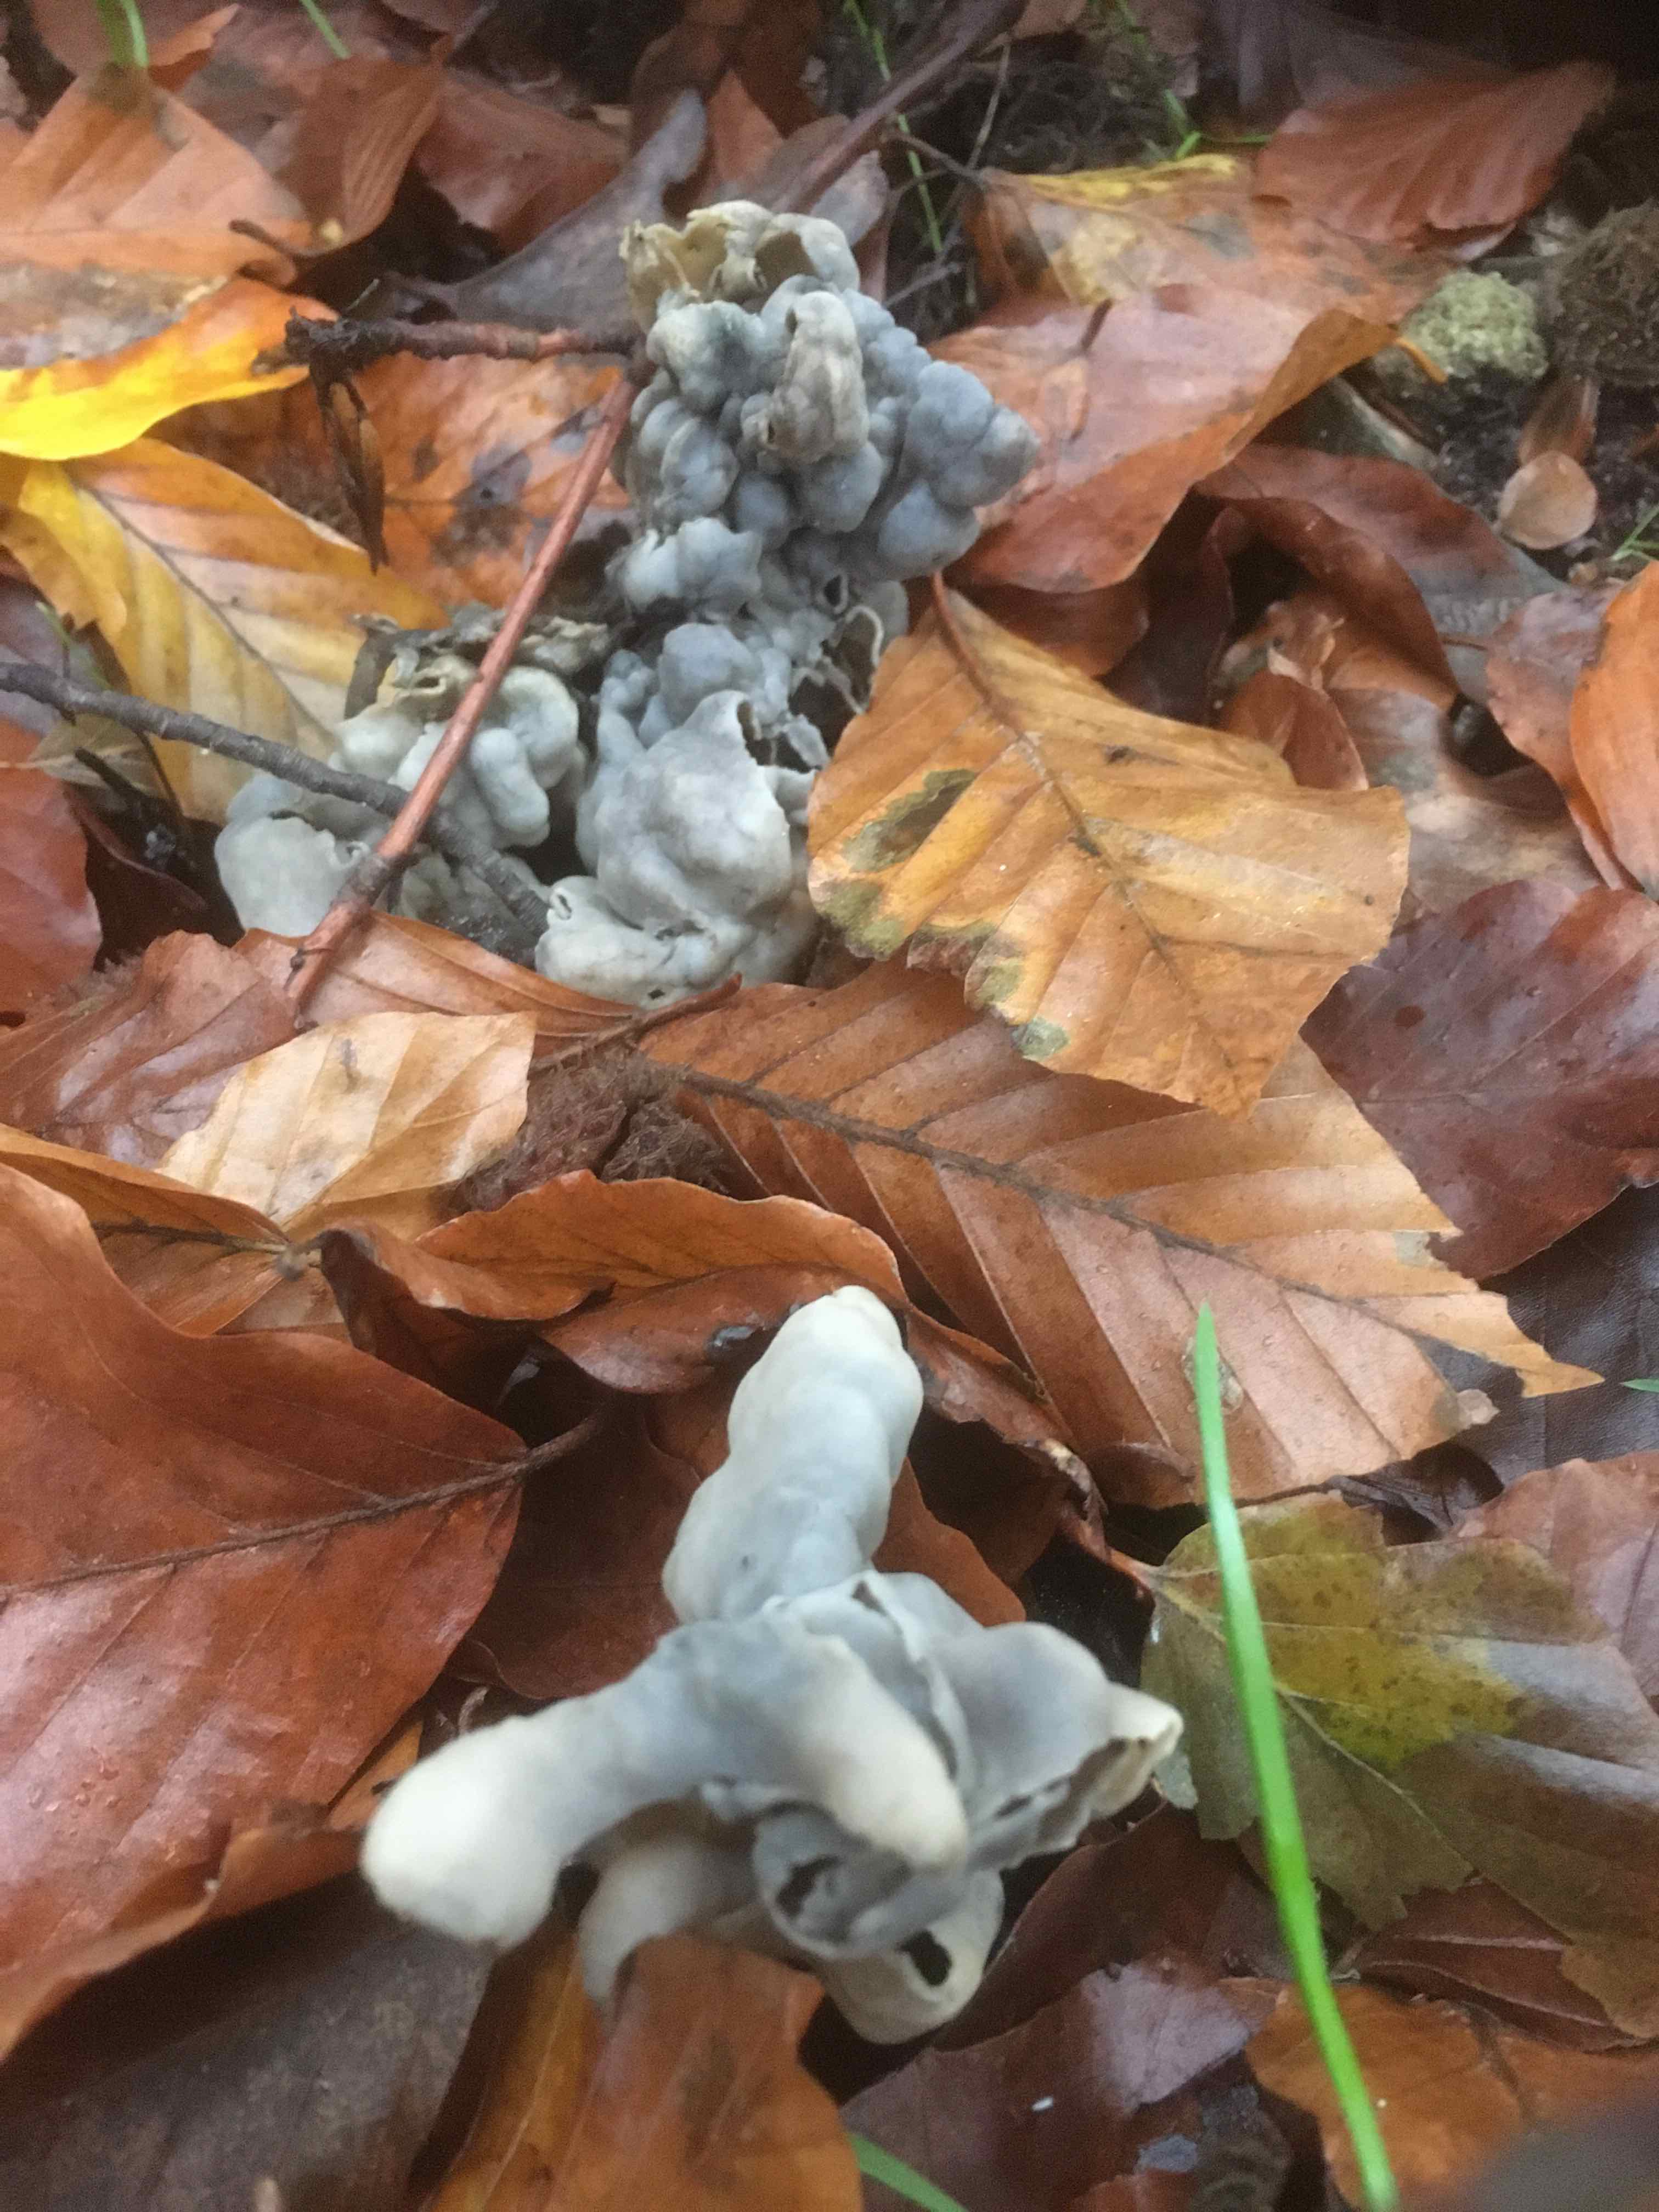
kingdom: Fungi
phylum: Ascomycota
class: Pezizomycetes
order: Pezizales
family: Helvellaceae
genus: Helvella
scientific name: Helvella lacunosa
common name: grubet foldhat
